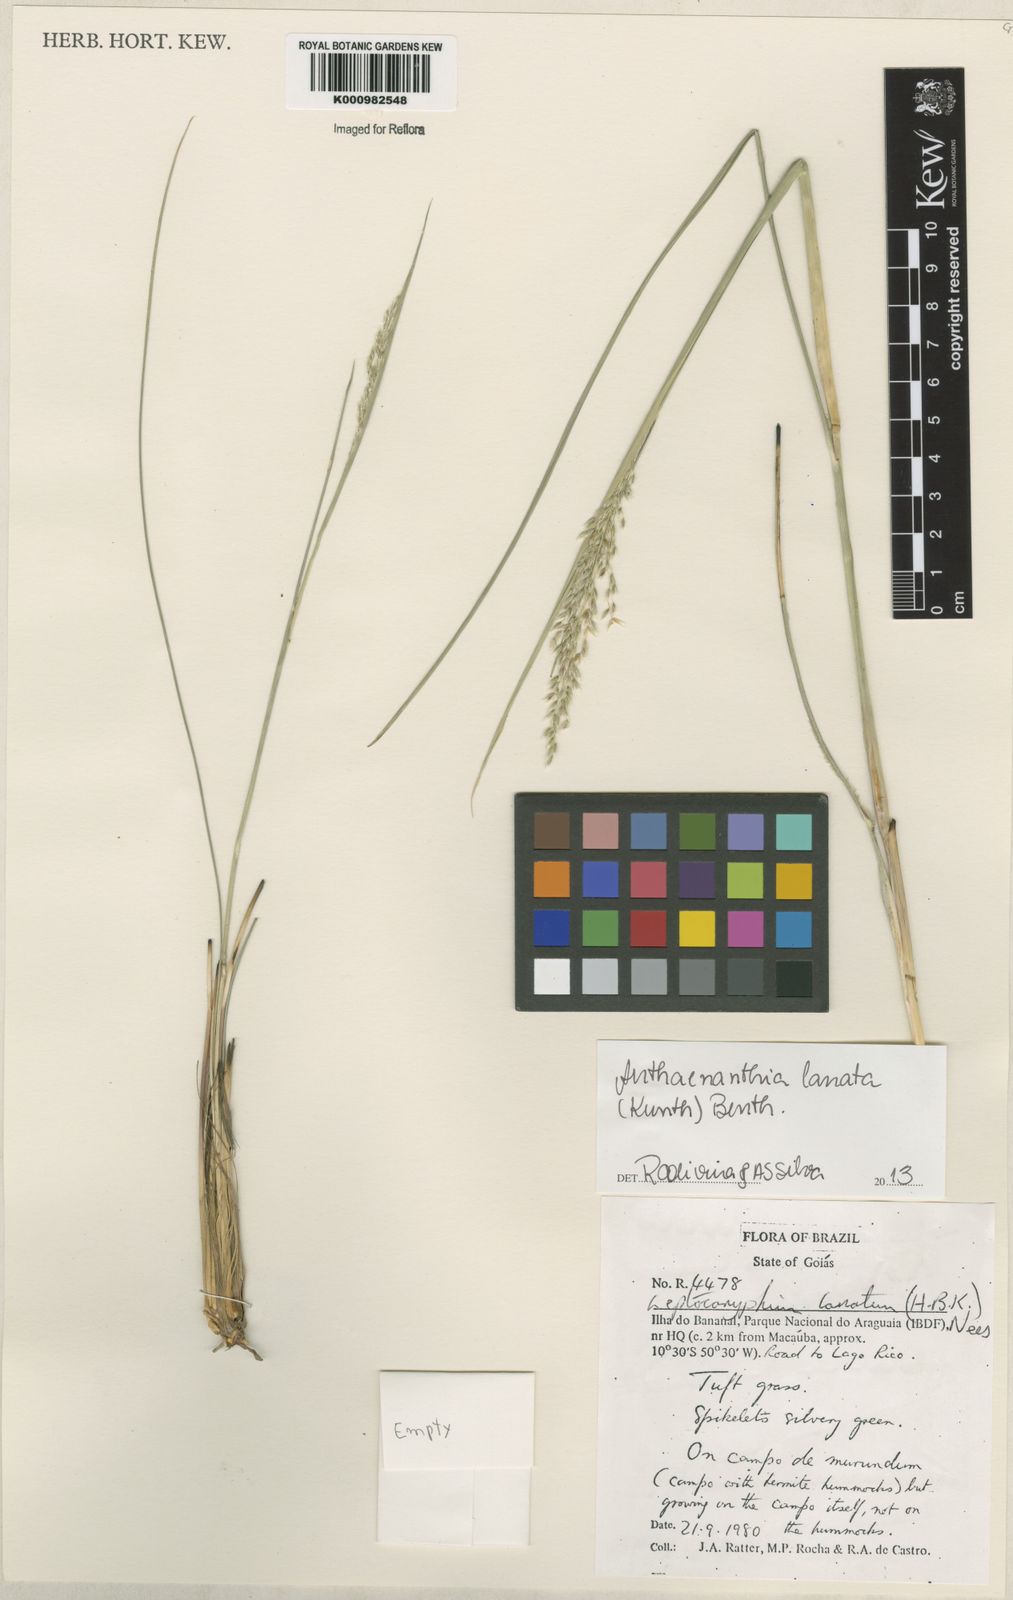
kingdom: Plantae
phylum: Tracheophyta
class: Liliopsida
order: Poales
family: Poaceae
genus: Anthenantia
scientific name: Anthenantia lanata
